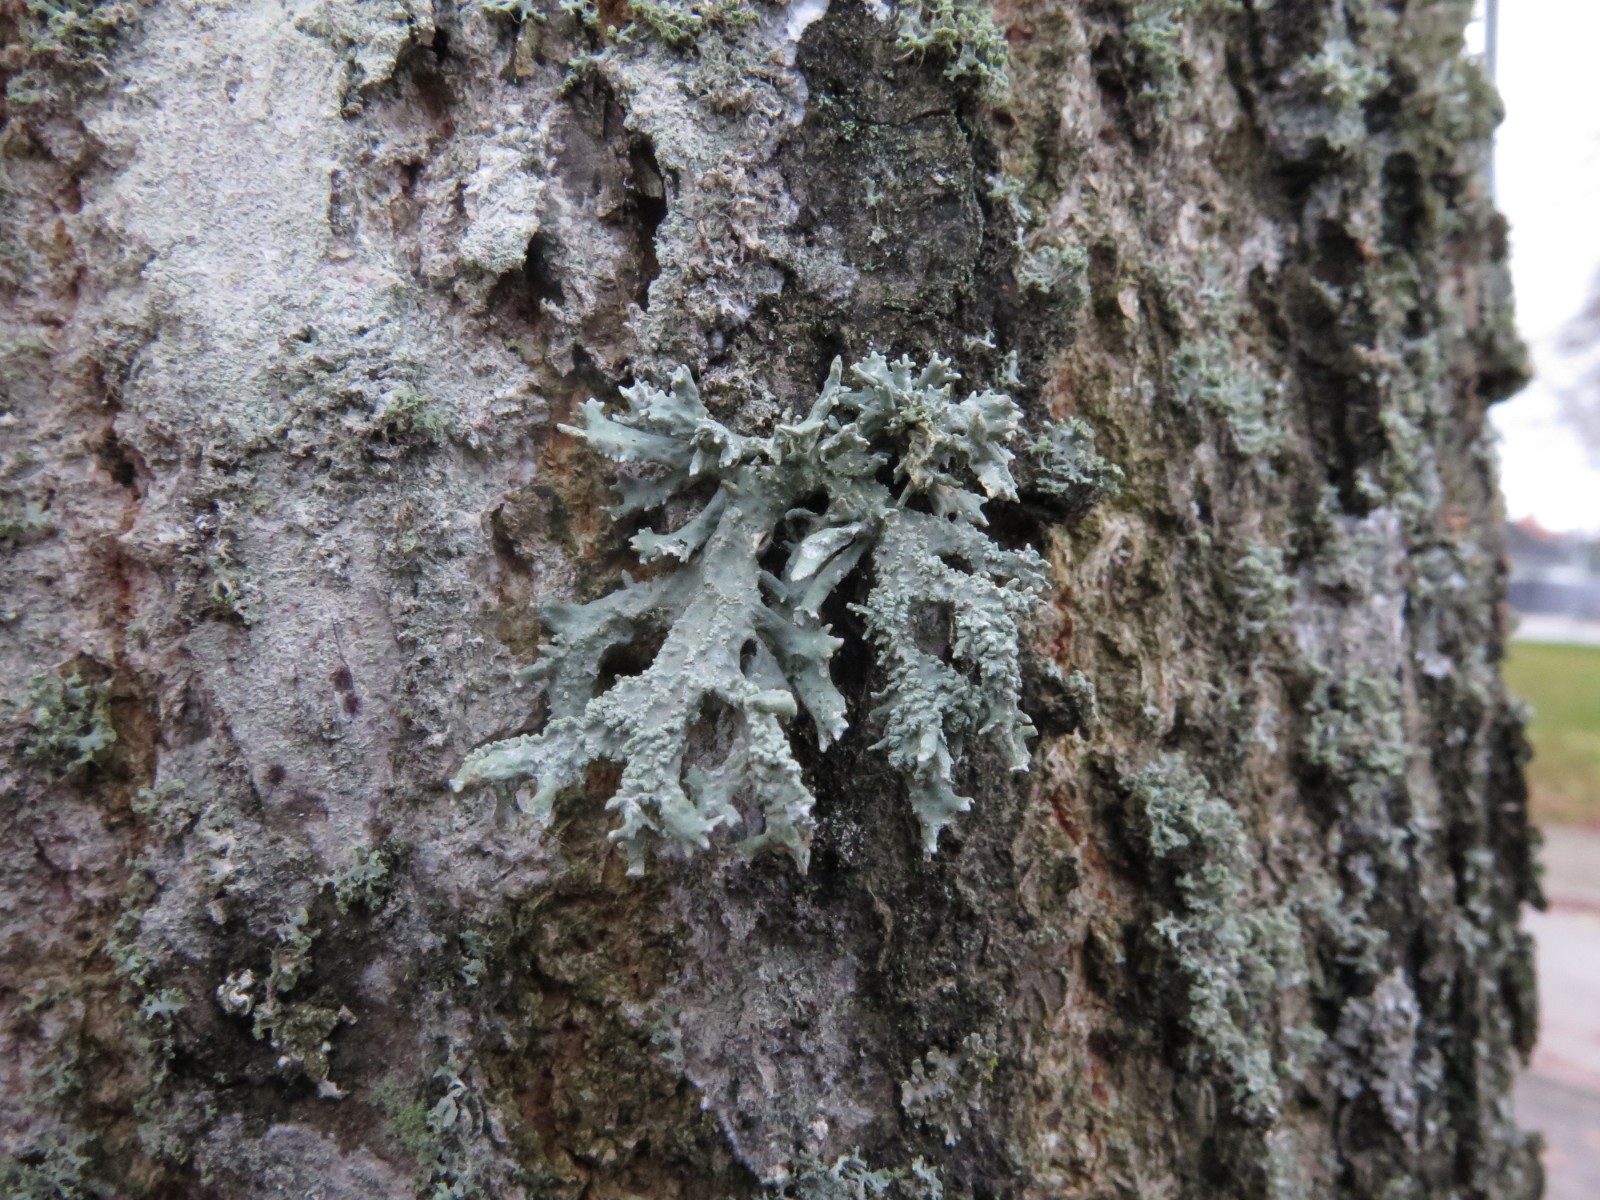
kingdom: Fungi
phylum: Ascomycota
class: Lecanoromycetes
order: Lecanorales
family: Parmeliaceae
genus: Evernia
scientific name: Evernia prunastri
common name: almindelig slåenlav
